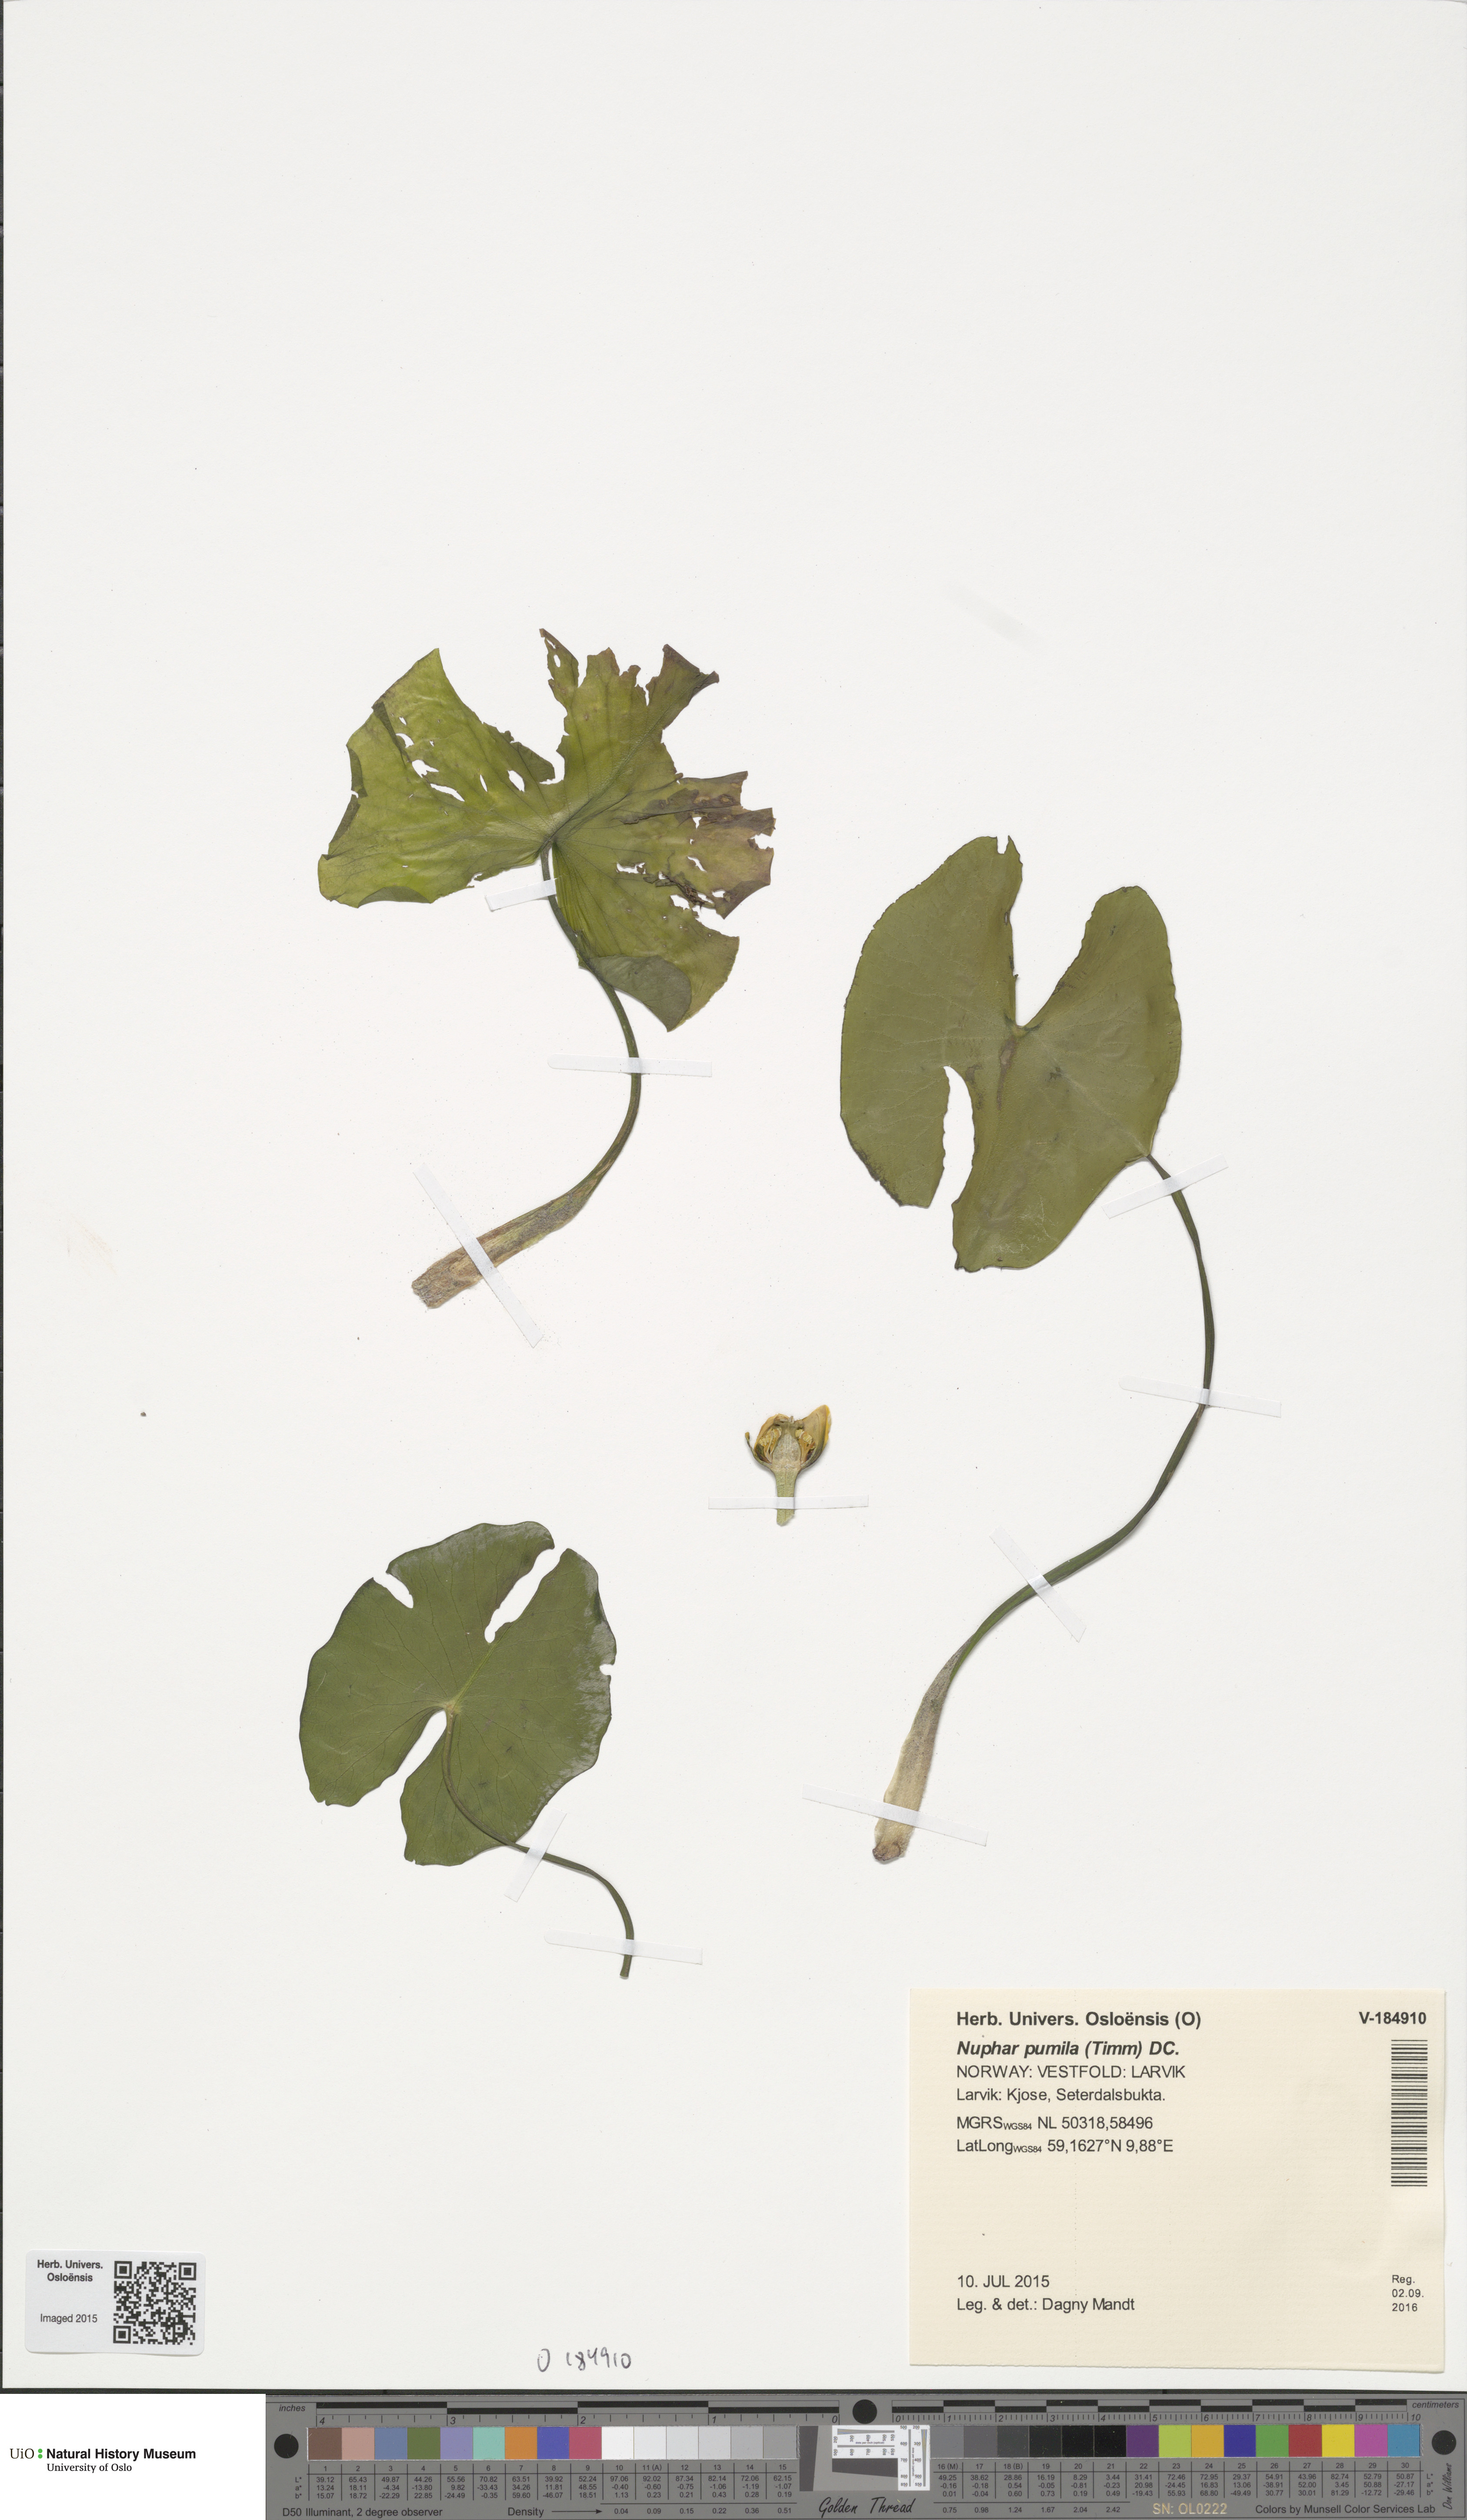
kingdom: Plantae
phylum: Tracheophyta
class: Magnoliopsida
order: Nymphaeales
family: Nymphaeaceae
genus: Nuphar
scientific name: Nuphar pumila
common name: Least water-lily
